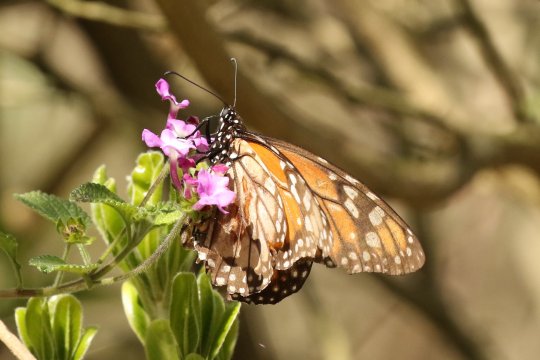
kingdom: Animalia
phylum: Arthropoda
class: Insecta
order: Lepidoptera
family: Nymphalidae
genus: Danaus
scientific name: Danaus erippus
